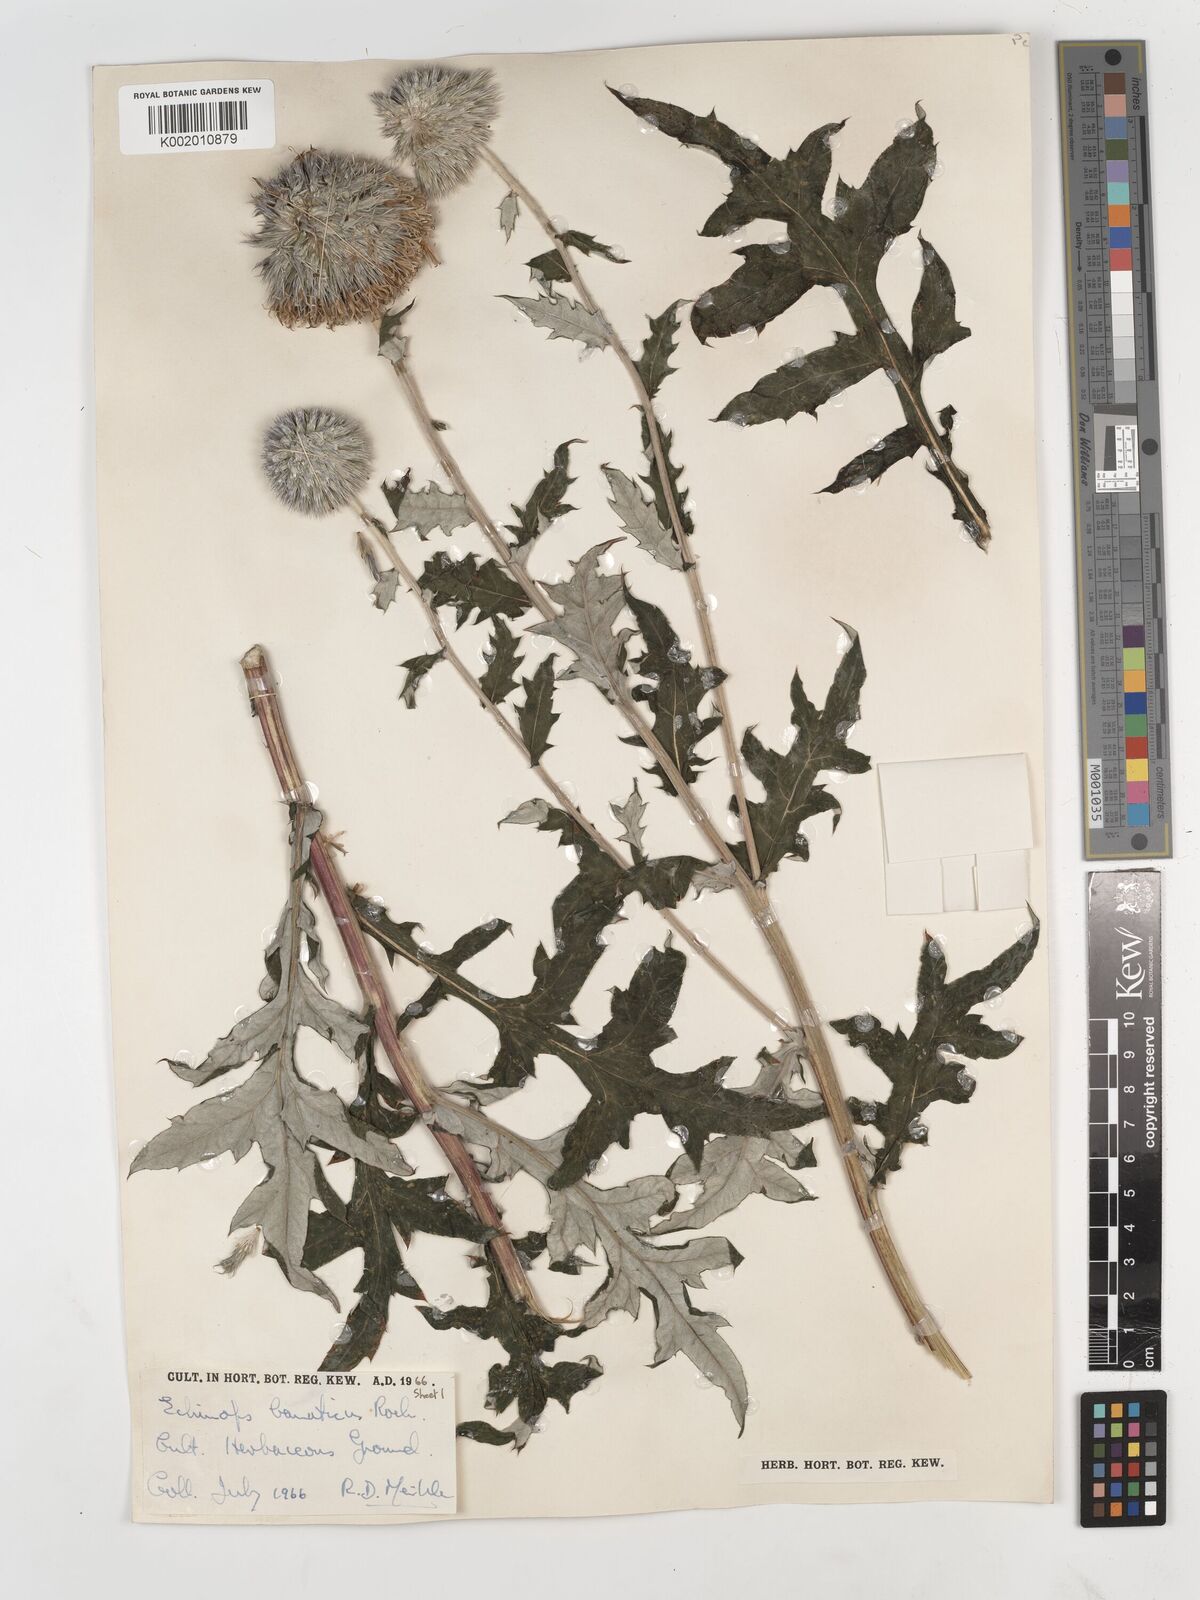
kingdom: Plantae
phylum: Tracheophyta
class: Magnoliopsida
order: Asterales
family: Asteraceae
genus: Echinops
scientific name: Echinops bannaticus
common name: Blue globe-thistle
